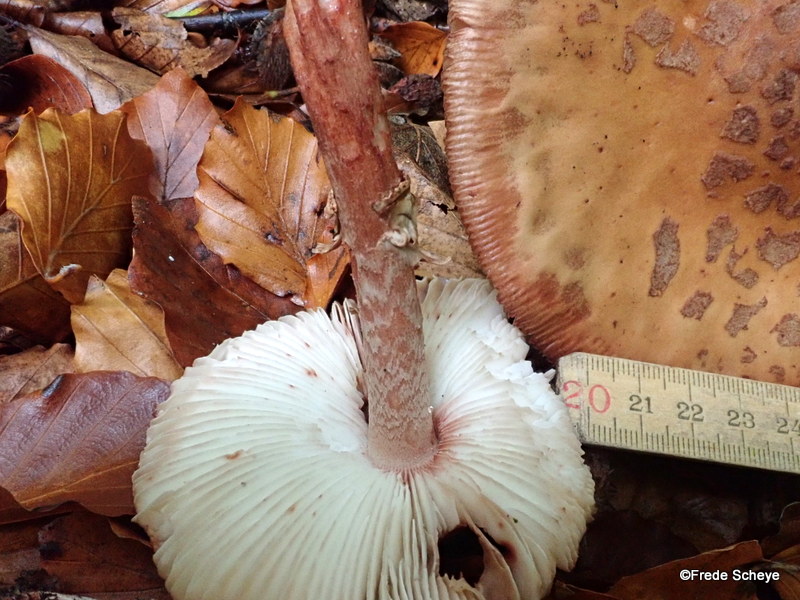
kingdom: Fungi
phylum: Basidiomycota
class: Agaricomycetes
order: Agaricales
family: Amanitaceae
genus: Amanita
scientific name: Amanita rubescens
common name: rødmende fluesvamp
